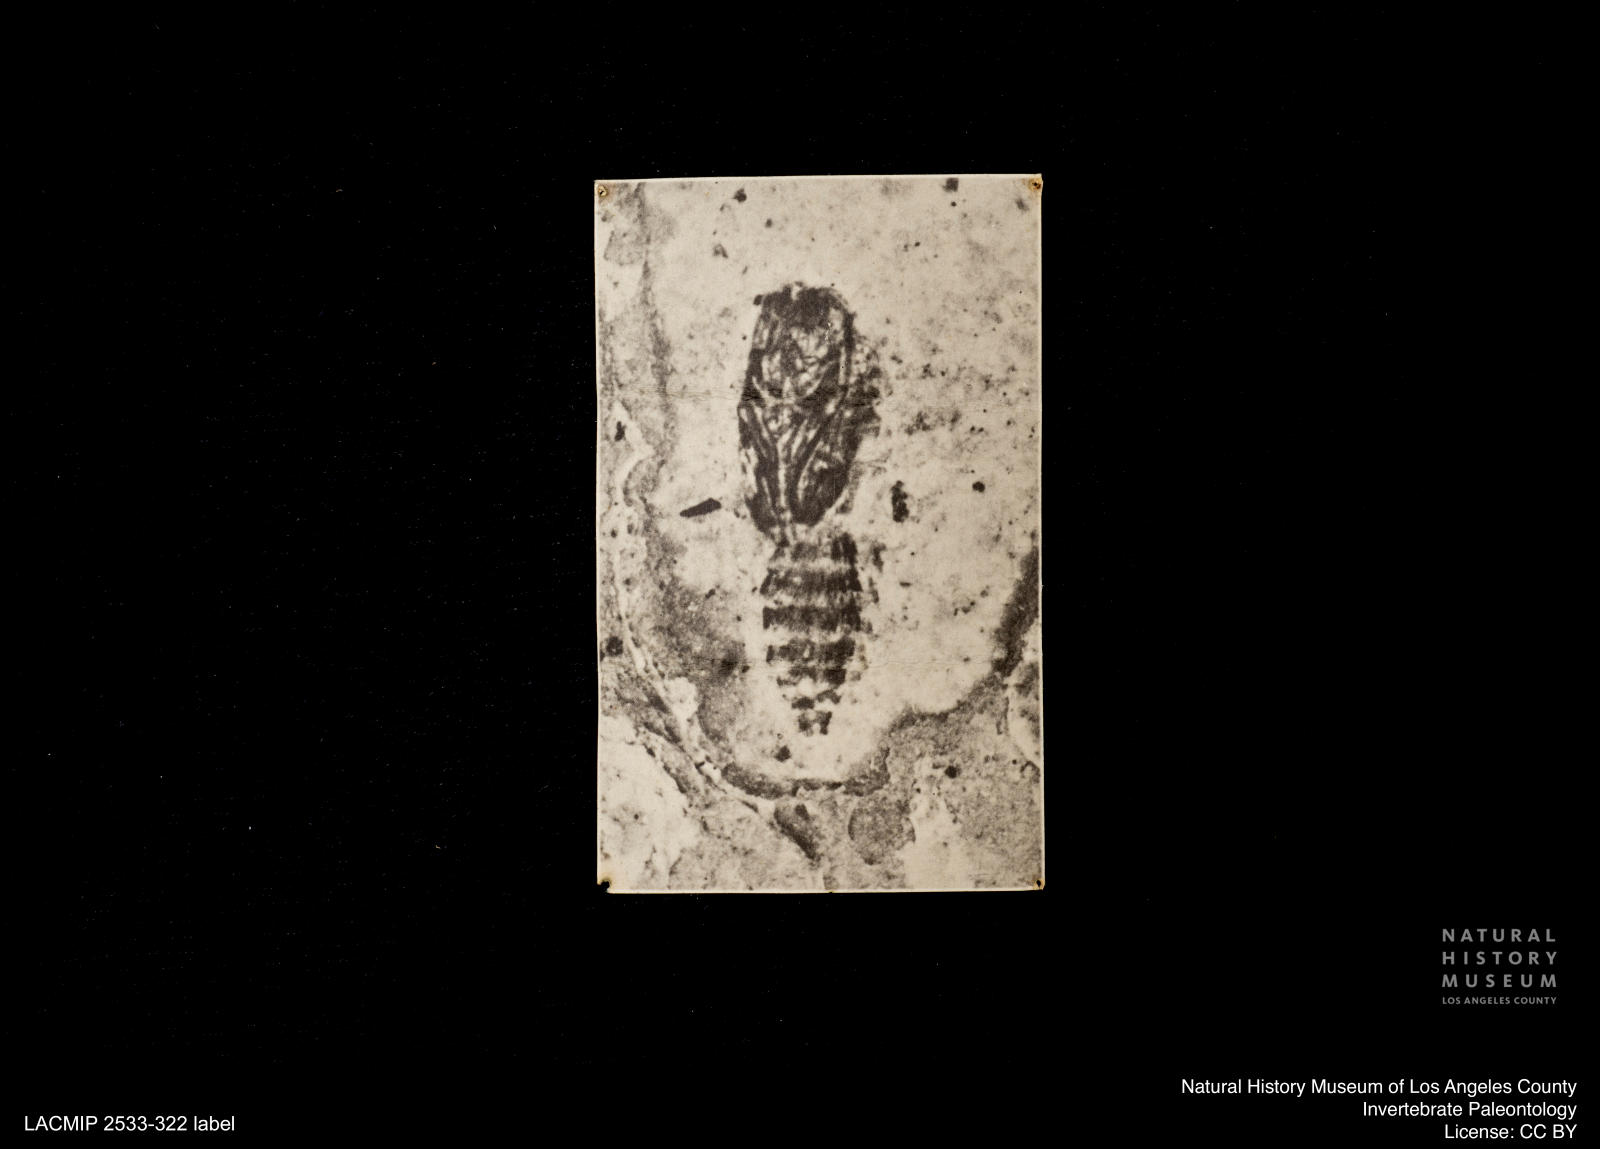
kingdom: Animalia
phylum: Arthropoda
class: Insecta
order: Diptera
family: Ceratopogonidae
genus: Ceratopogon
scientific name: Ceratopogon
